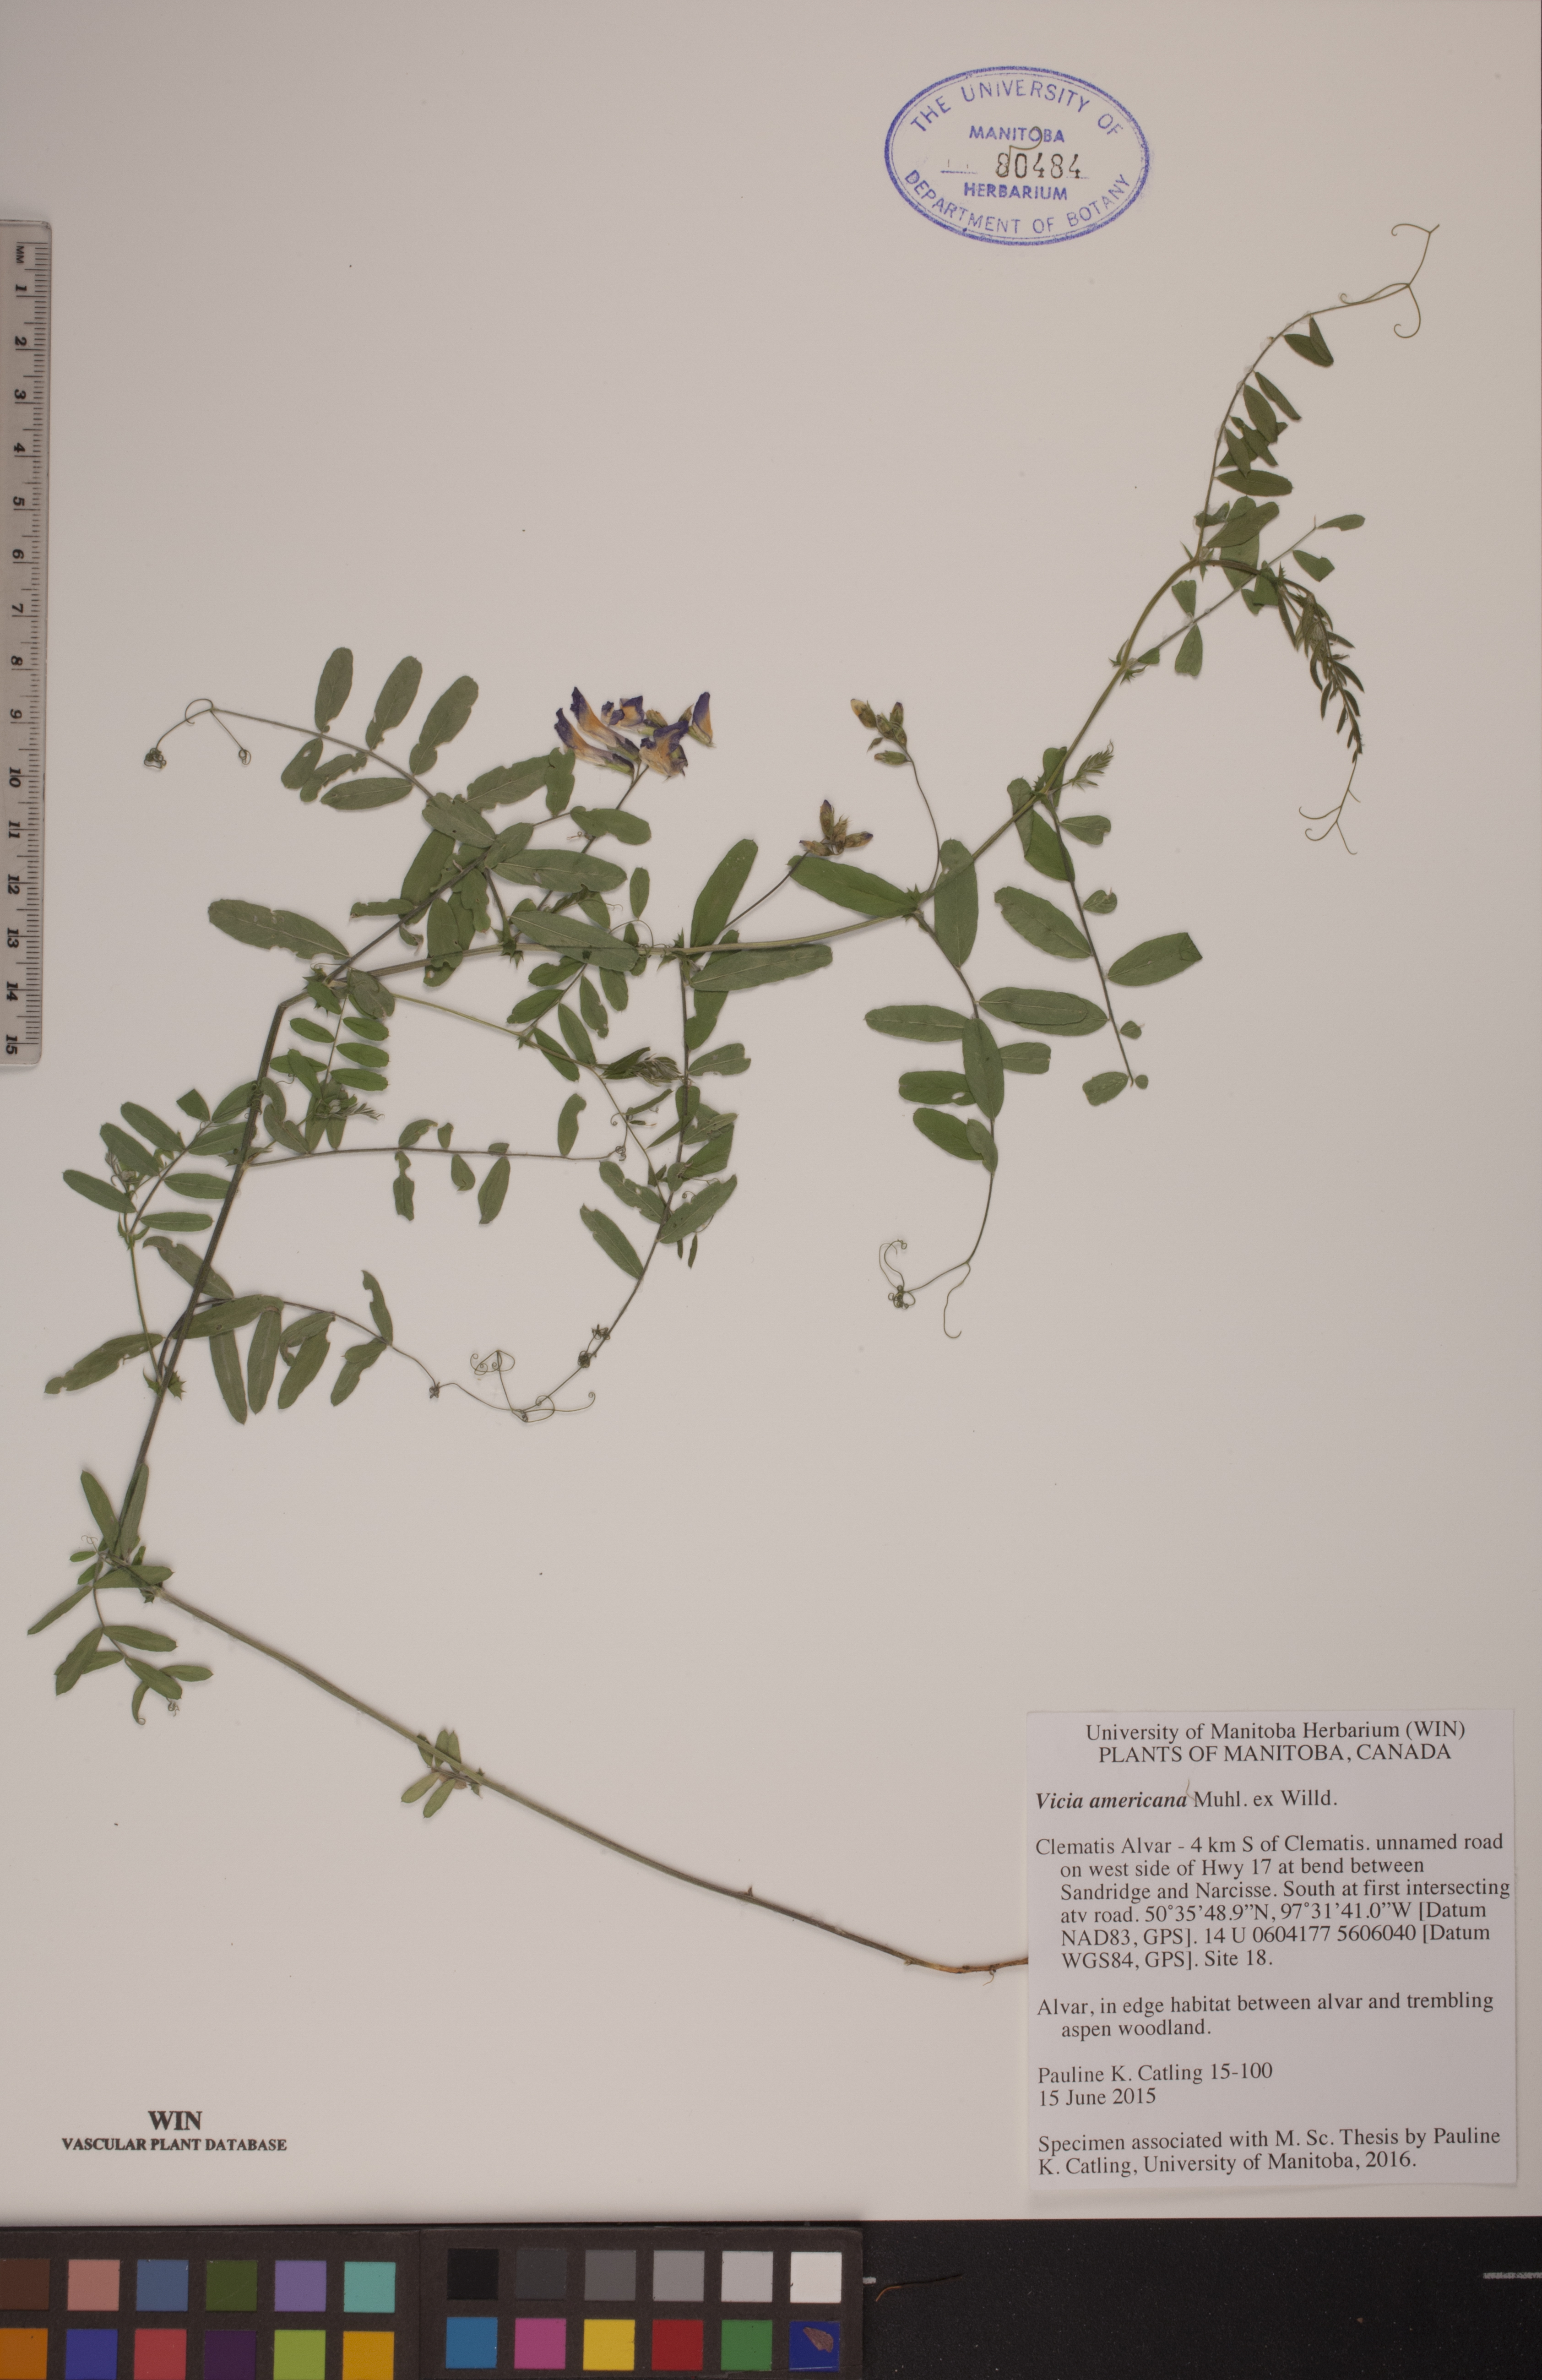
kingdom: Plantae
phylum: Tracheophyta
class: Magnoliopsida
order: Fabales
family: Fabaceae
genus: Vicia
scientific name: Vicia americana
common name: American vetch
